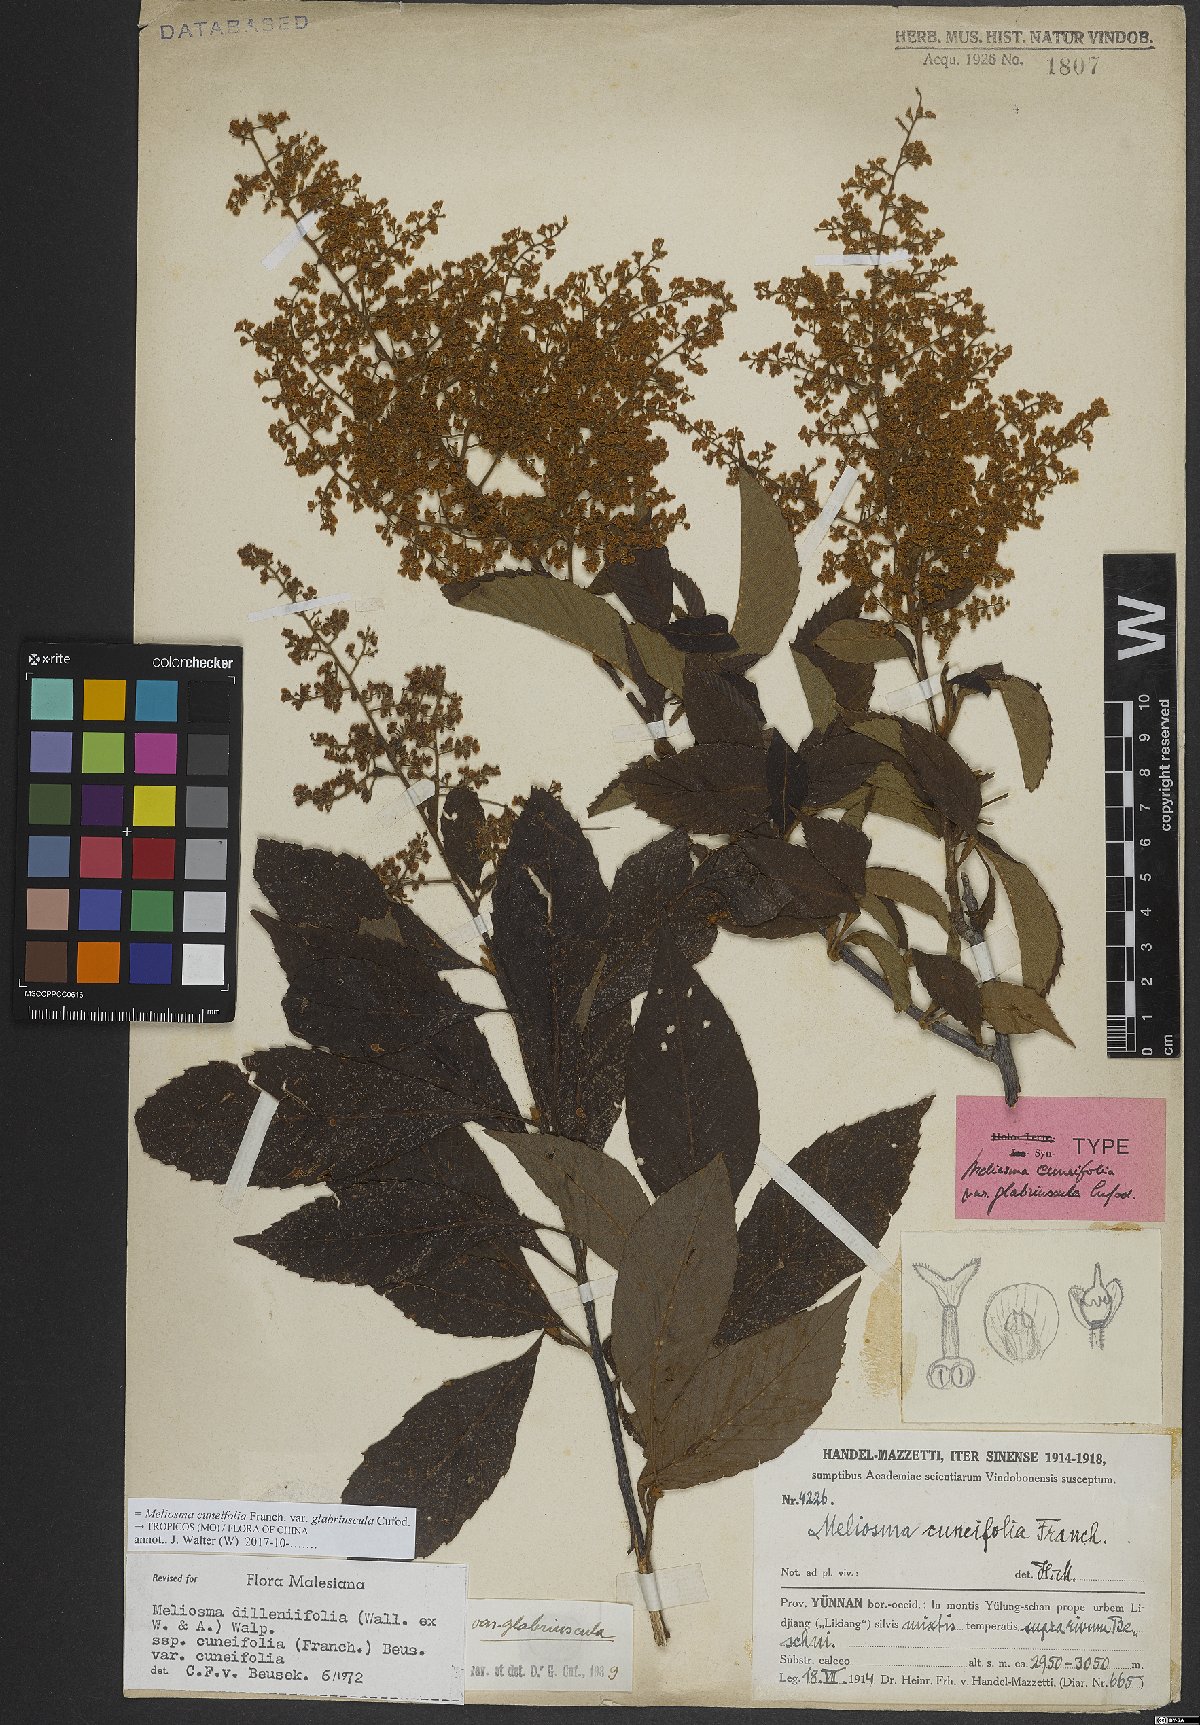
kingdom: Plantae
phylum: Tracheophyta
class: Magnoliopsida
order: Proteales
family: Sabiaceae
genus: Meliosma
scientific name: Meliosma cuneifolia
